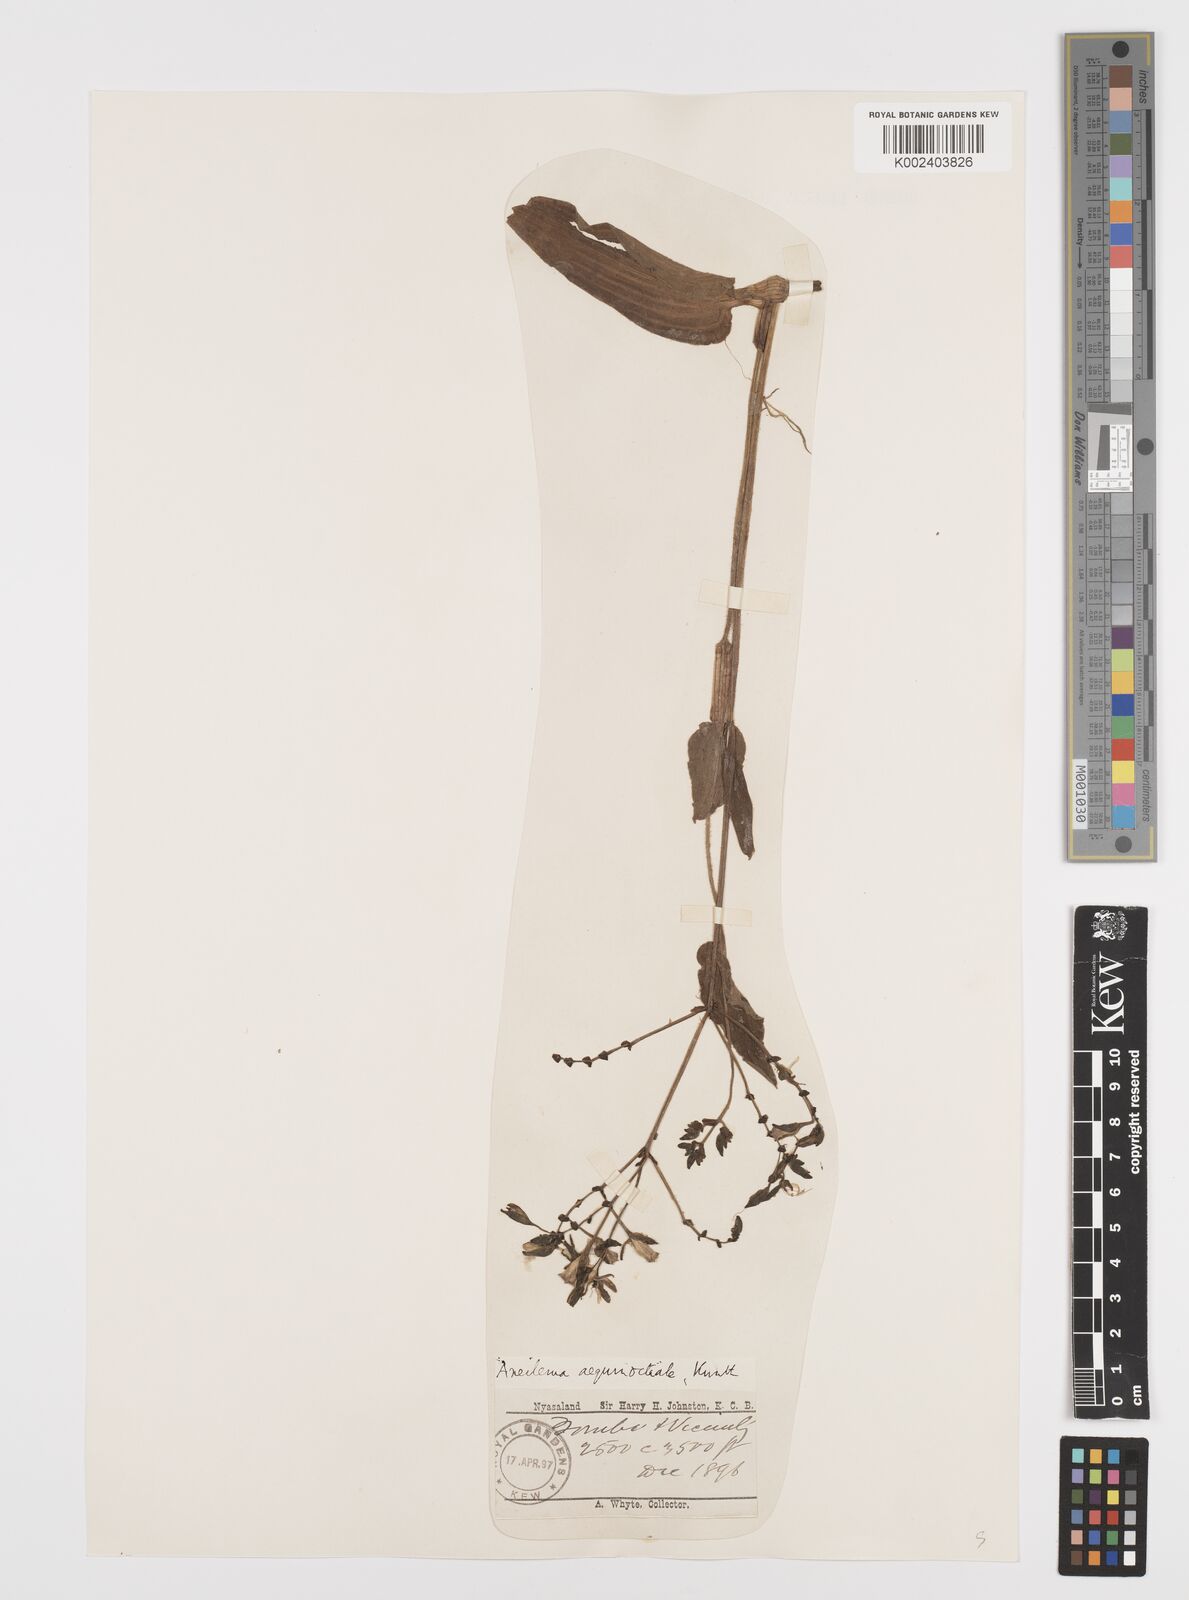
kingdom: Plantae
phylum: Tracheophyta
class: Liliopsida
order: Commelinales
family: Commelinaceae
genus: Aneilema
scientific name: Aneilema aequinoctiale
